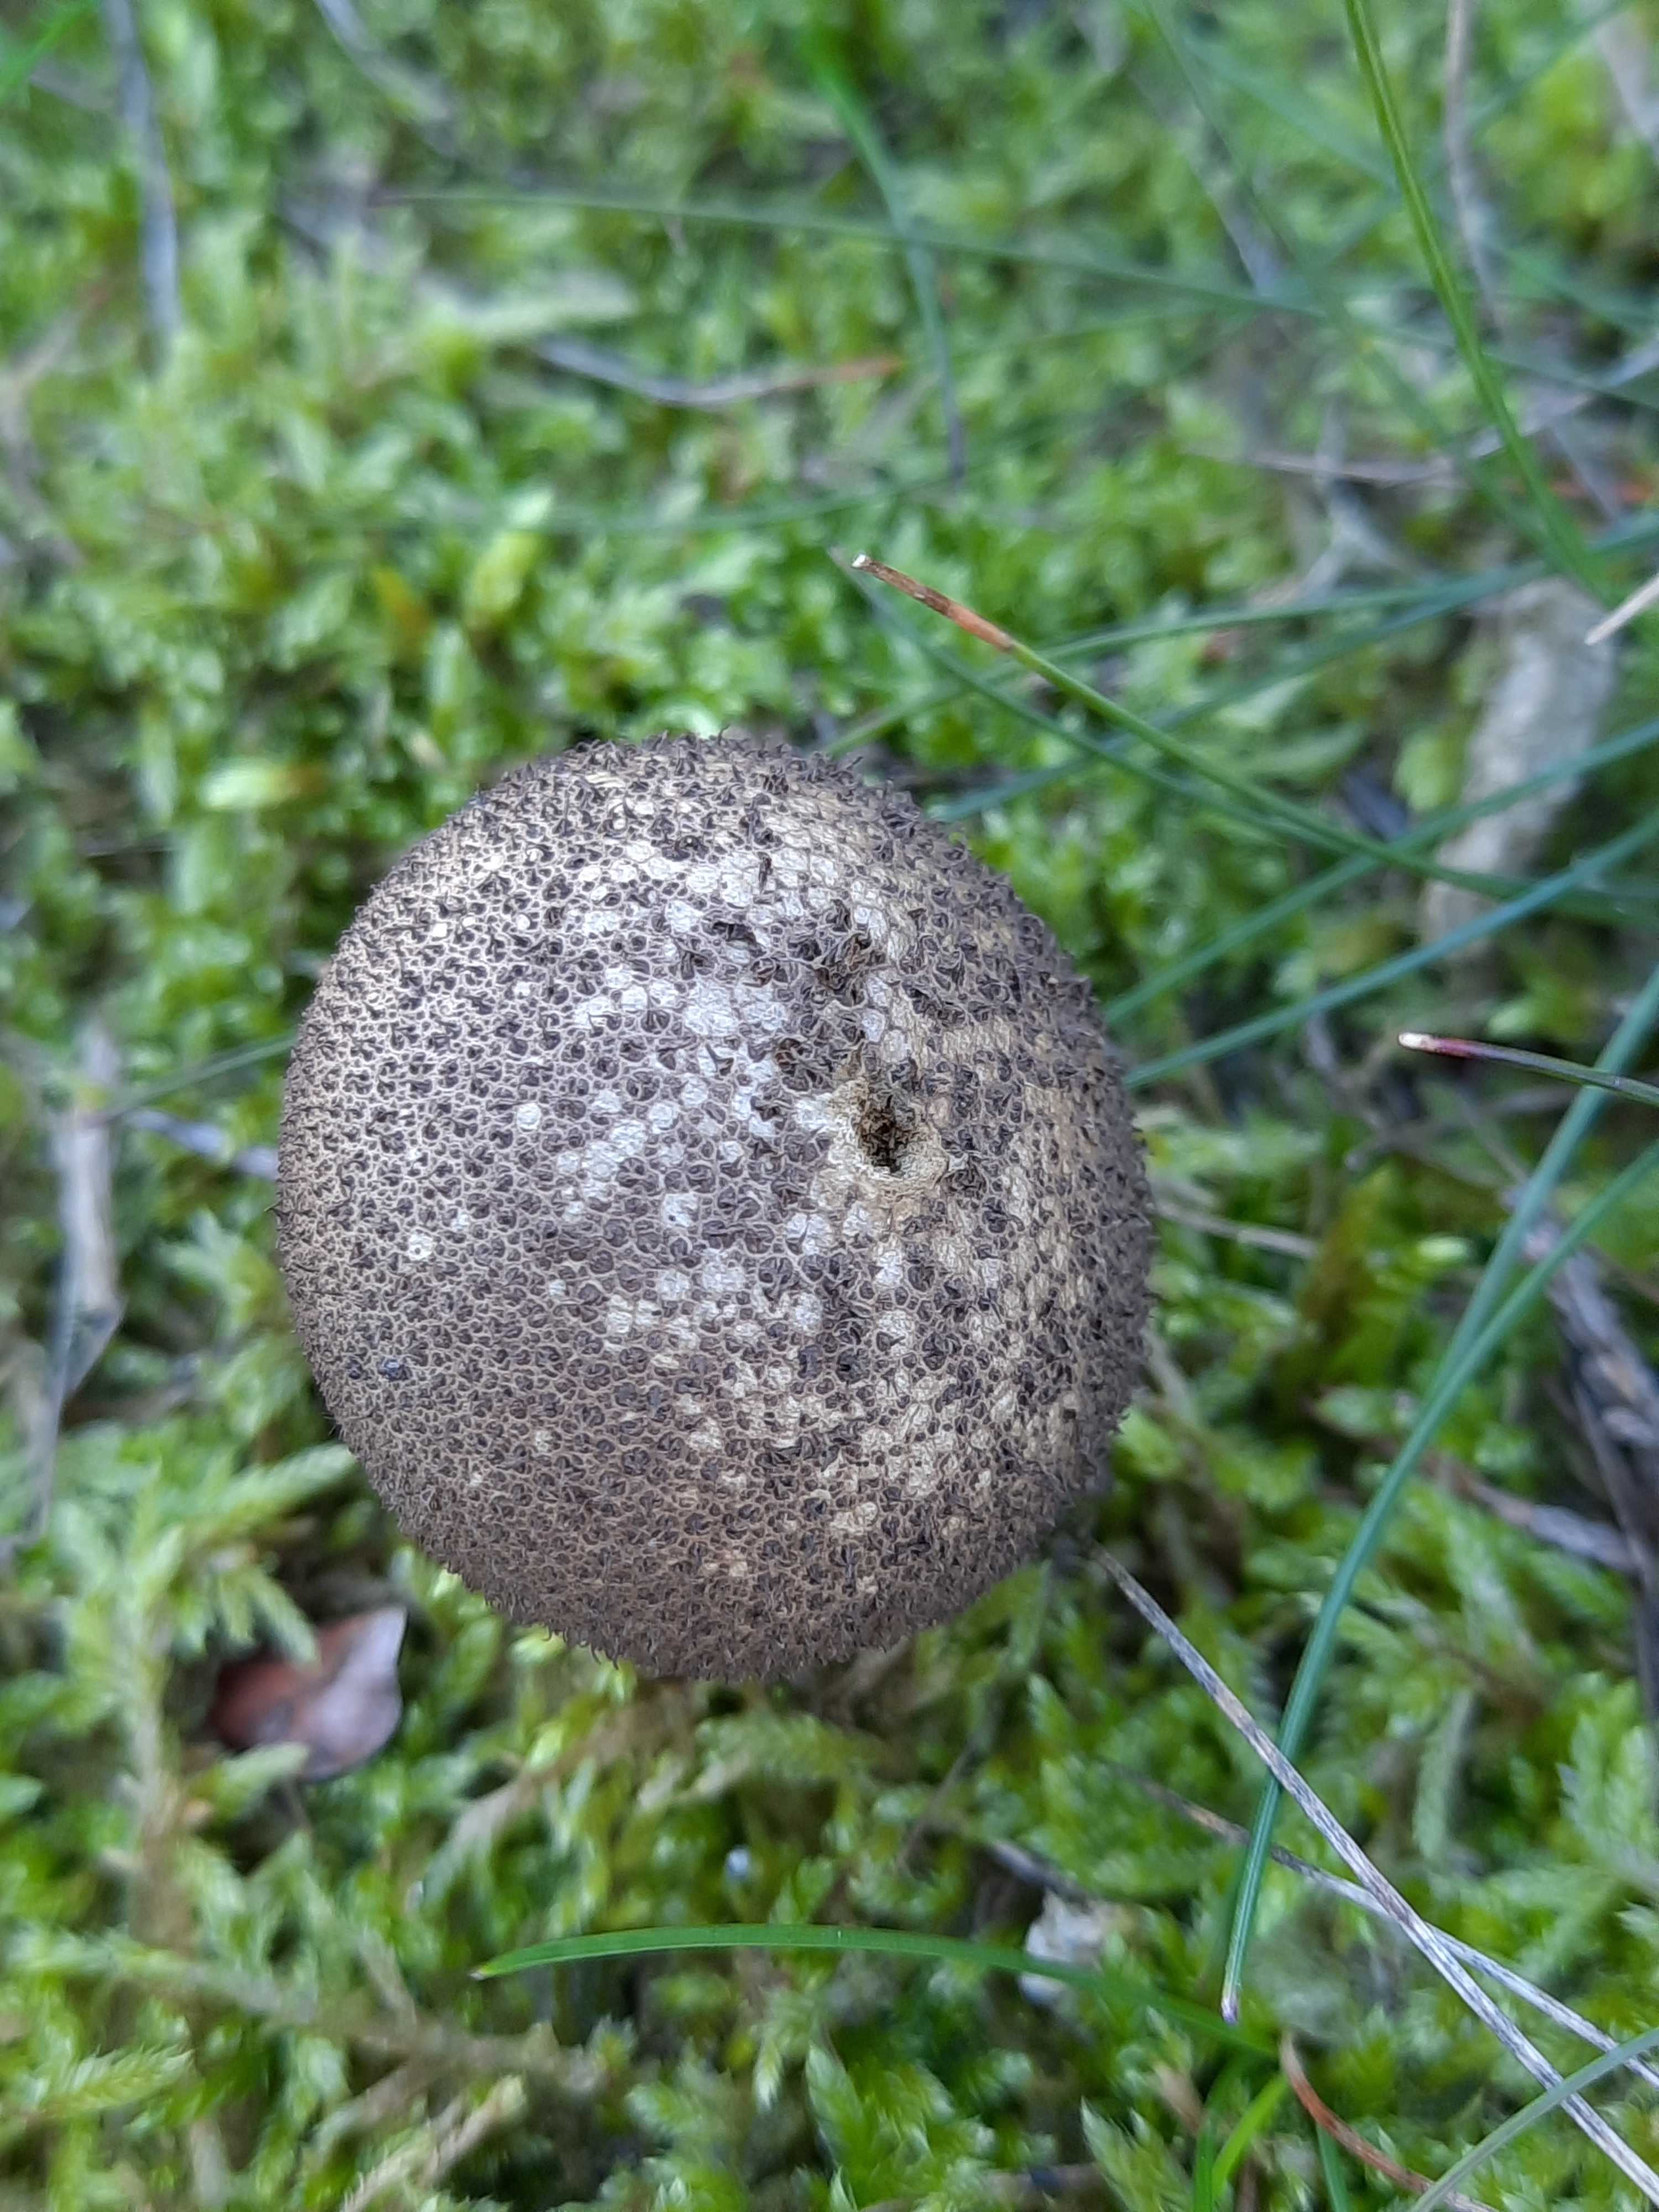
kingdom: Fungi
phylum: Basidiomycota
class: Agaricomycetes
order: Agaricales
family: Lycoperdaceae
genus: Lycoperdon
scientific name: Lycoperdon nigrescens
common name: sortagtig støvbold
